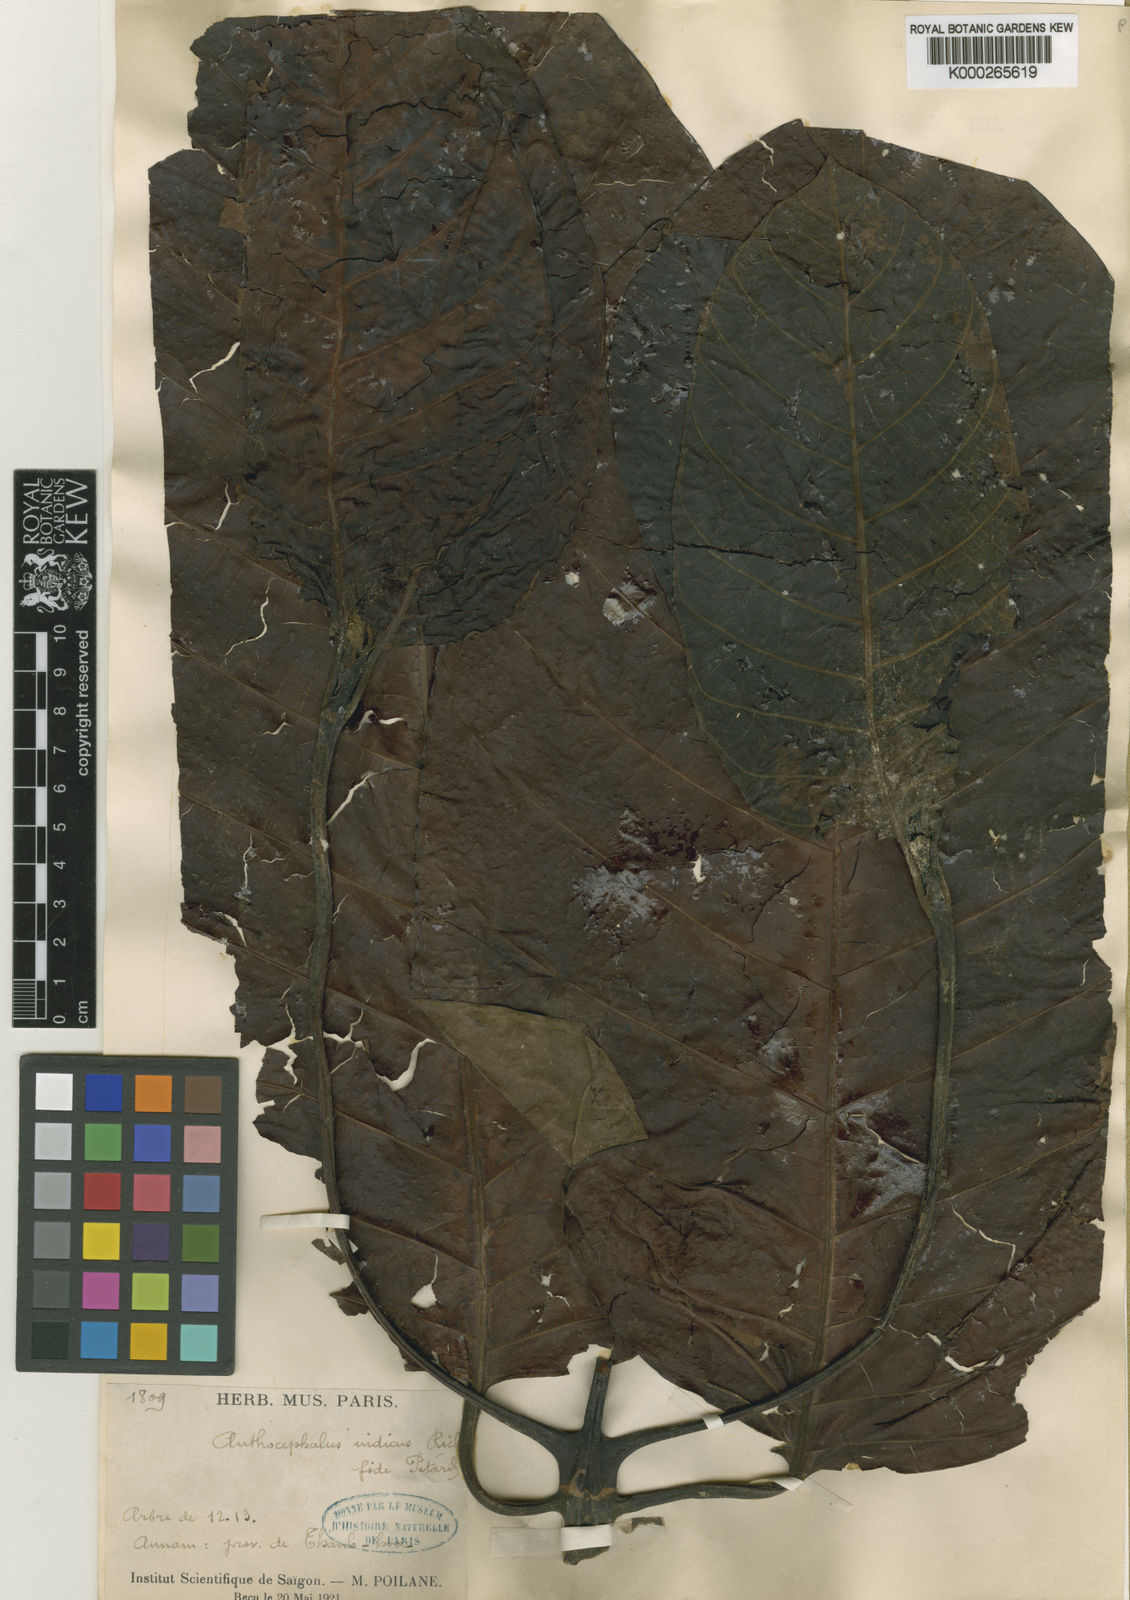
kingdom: Plantae
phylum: Tracheophyta
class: Magnoliopsida
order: Gentianales
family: Rubiaceae
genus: Neolamarckia
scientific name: Neolamarckia cadamba
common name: Leichhardt-pine
